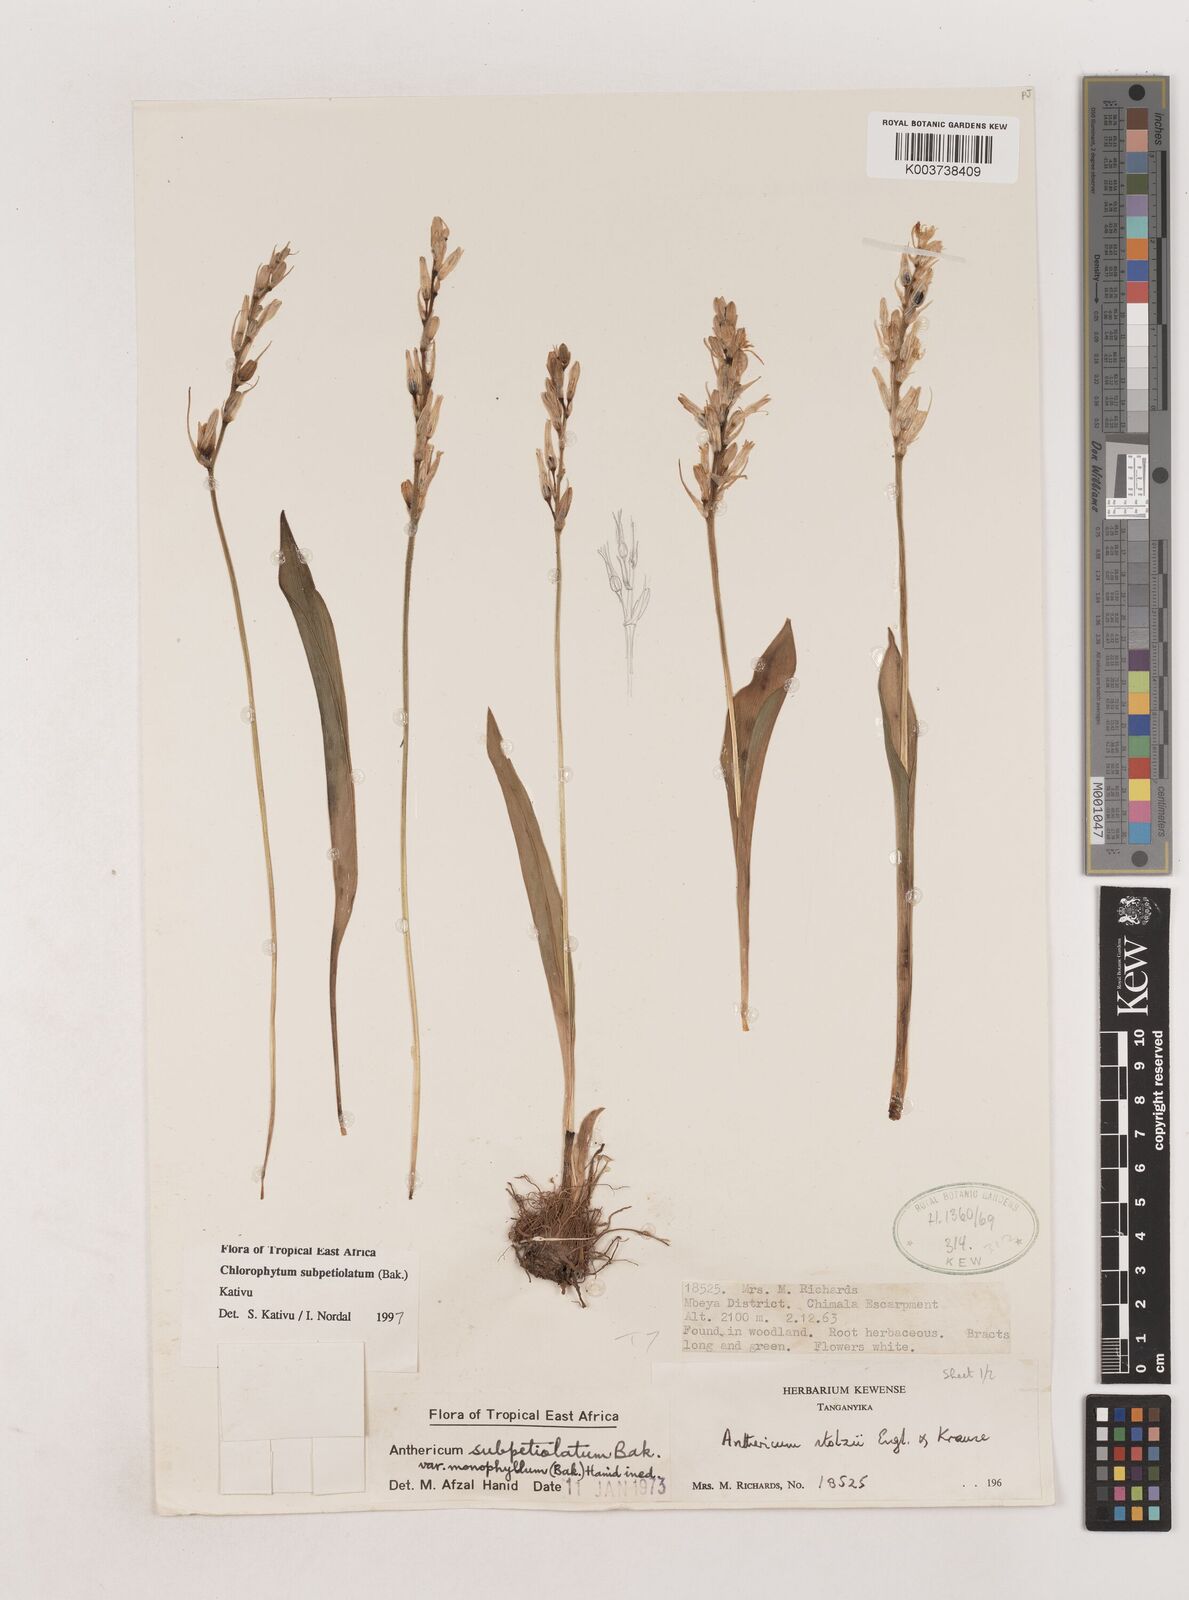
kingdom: Plantae
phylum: Tracheophyta
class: Liliopsida
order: Asparagales
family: Asparagaceae
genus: Chlorophytum
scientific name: Chlorophytum subpetiolatum
